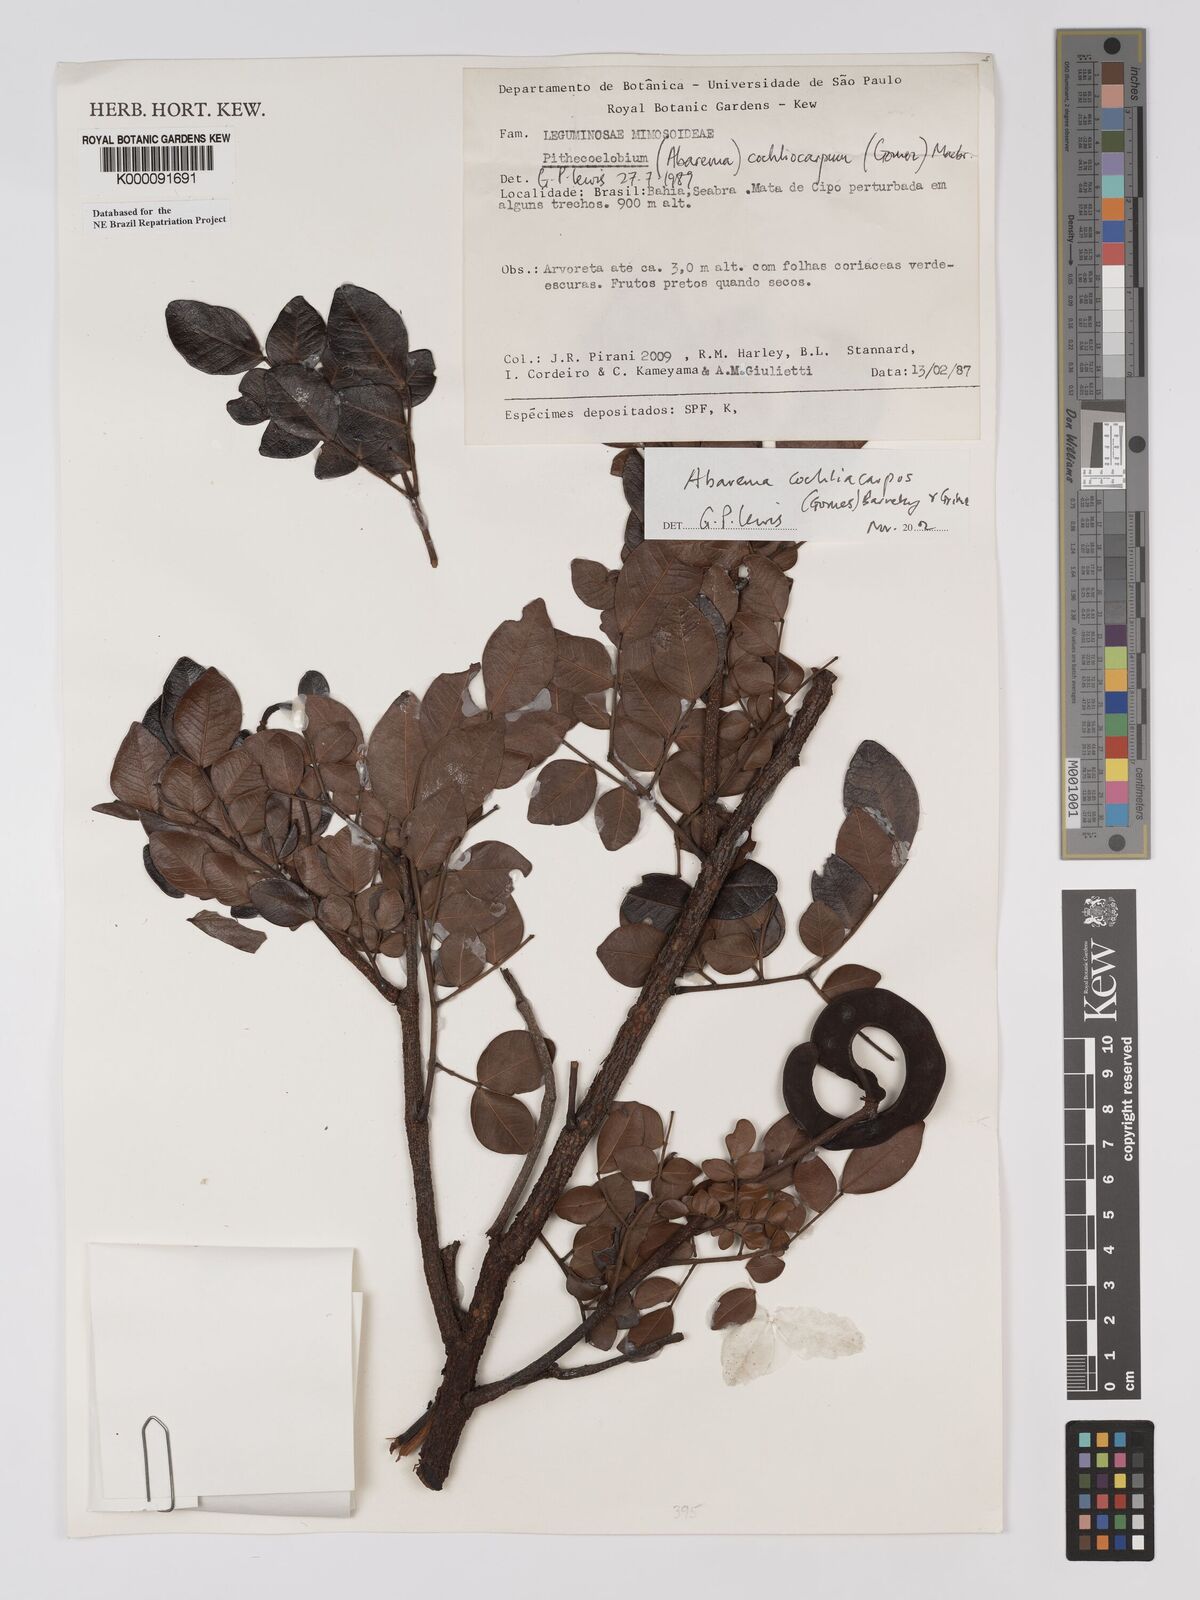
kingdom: Plantae
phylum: Tracheophyta
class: Magnoliopsida
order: Fabales
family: Fabaceae
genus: Abarema
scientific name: Abarema
